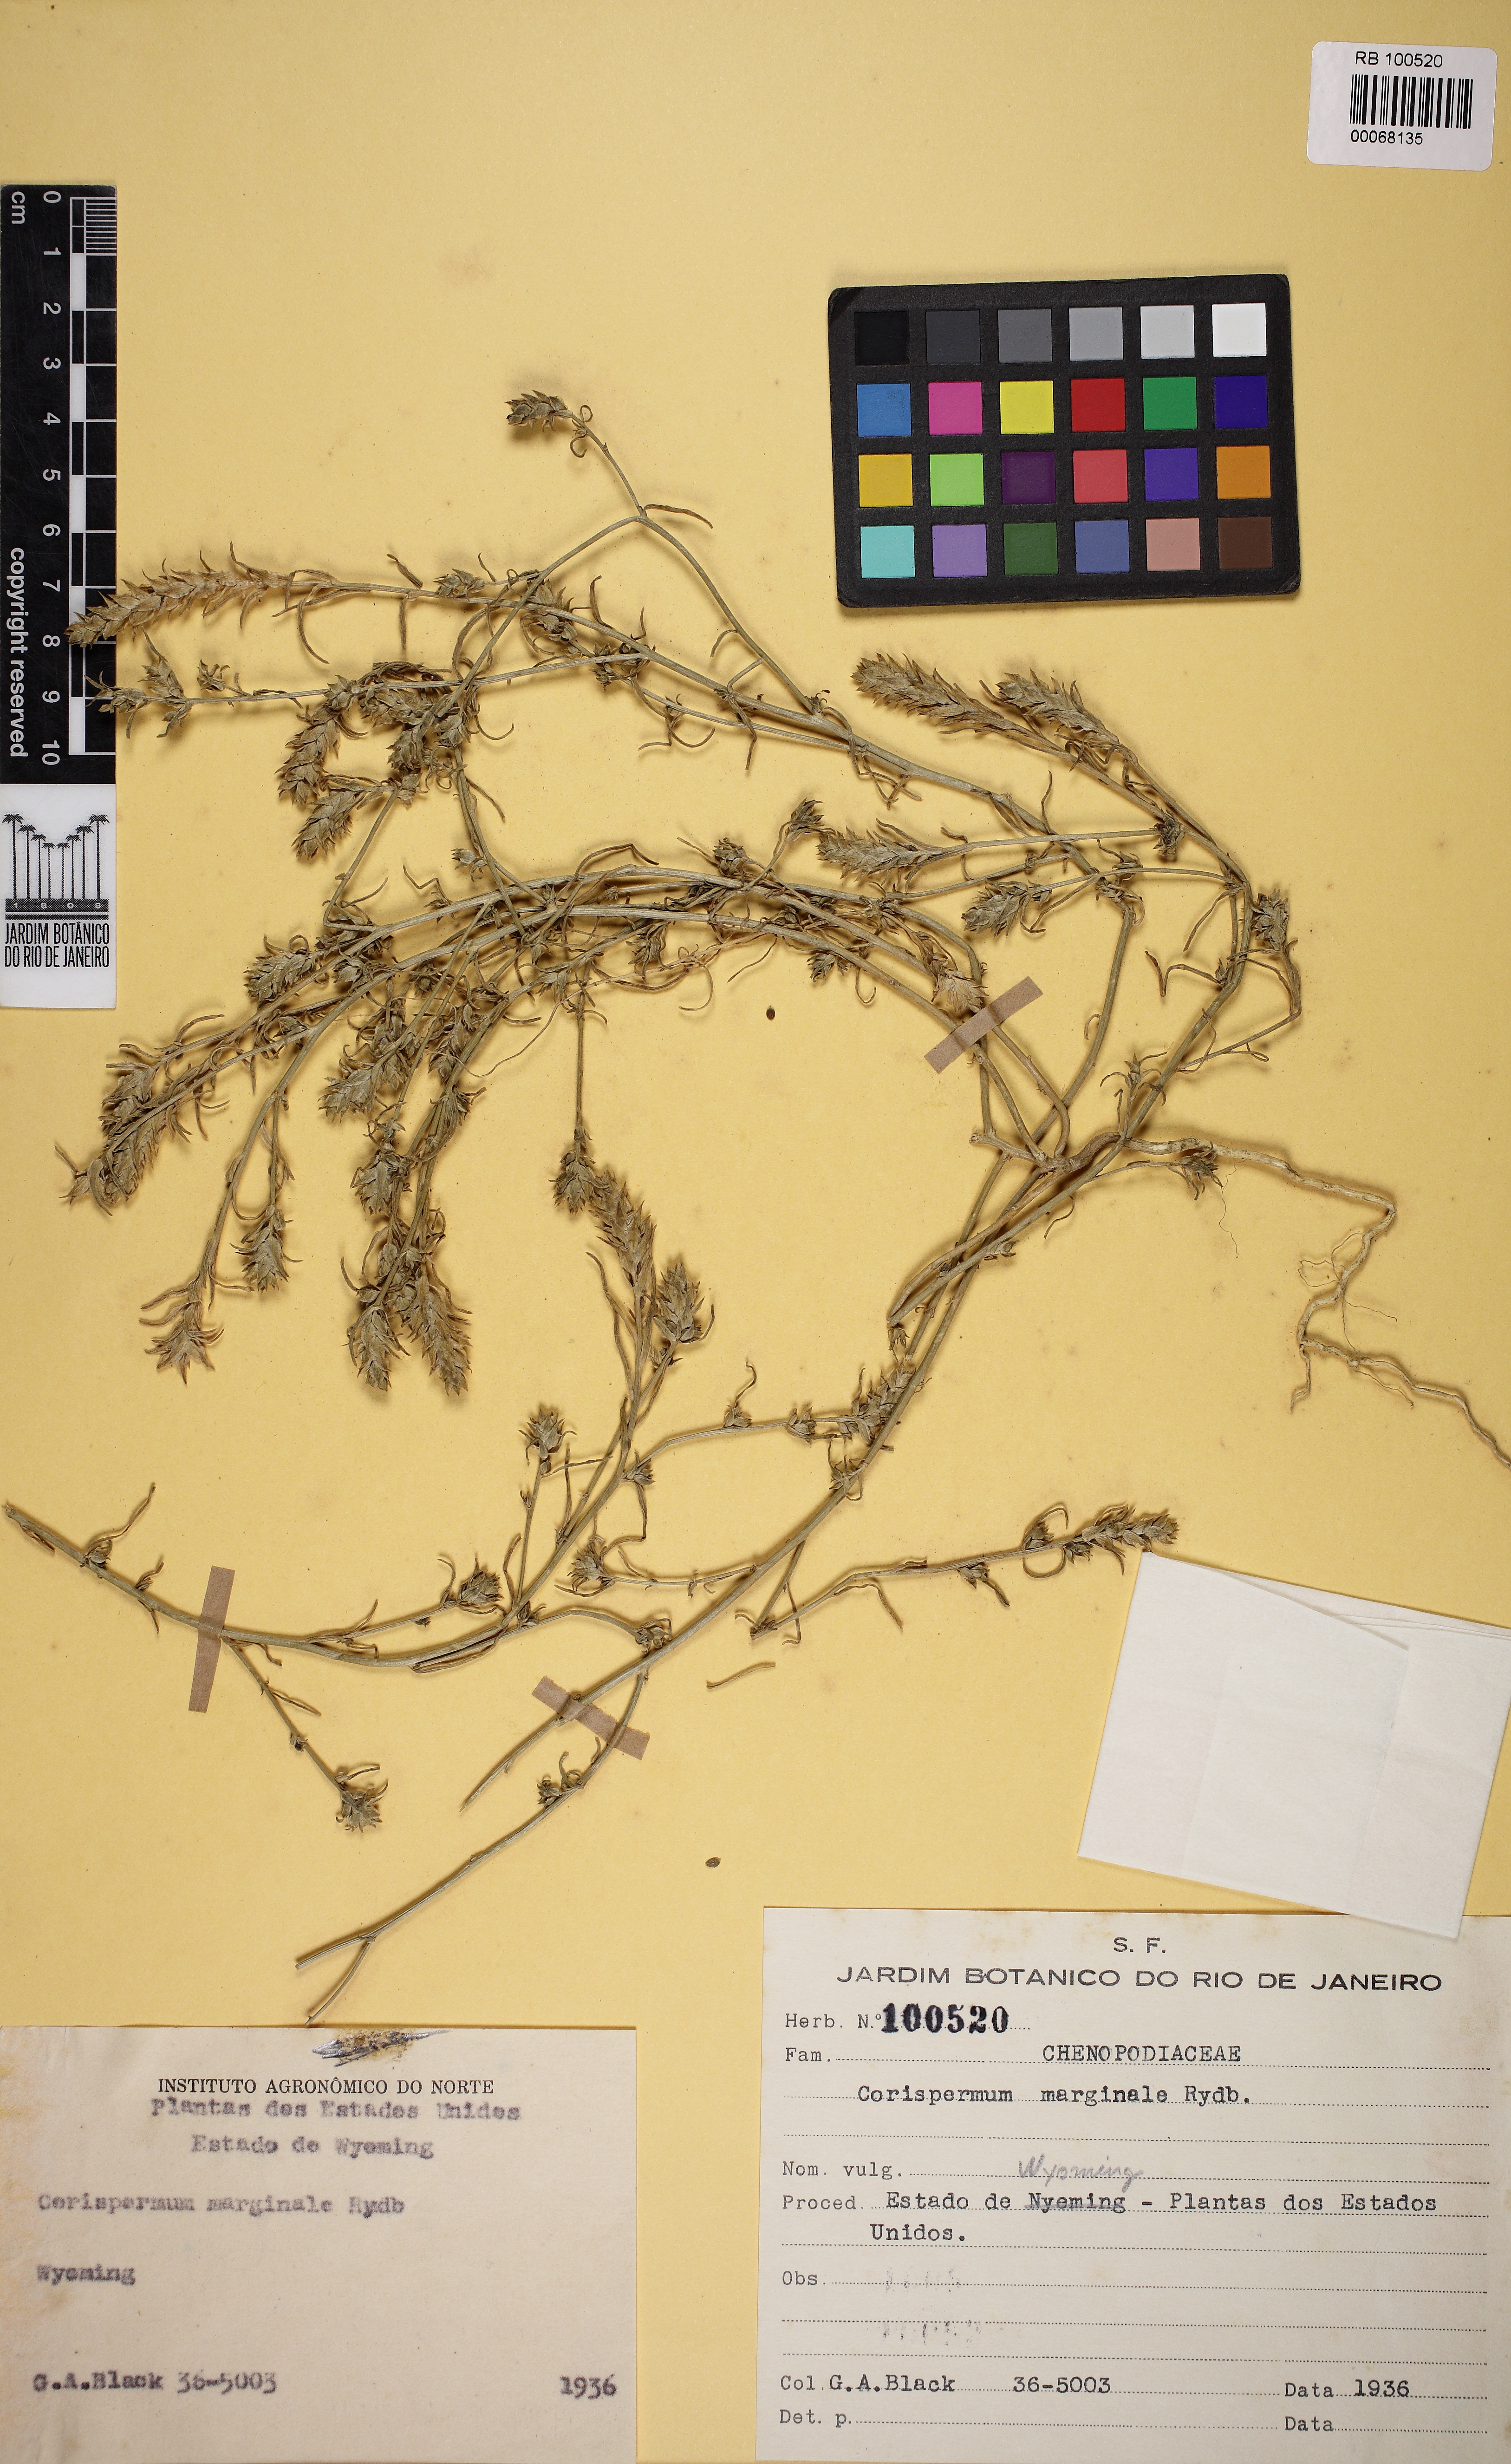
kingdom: Plantae
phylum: Tracheophyta
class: Magnoliopsida
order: Caryophyllales
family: Amaranthaceae
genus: Corispermum
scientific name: Corispermum americanum
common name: American bugseed
